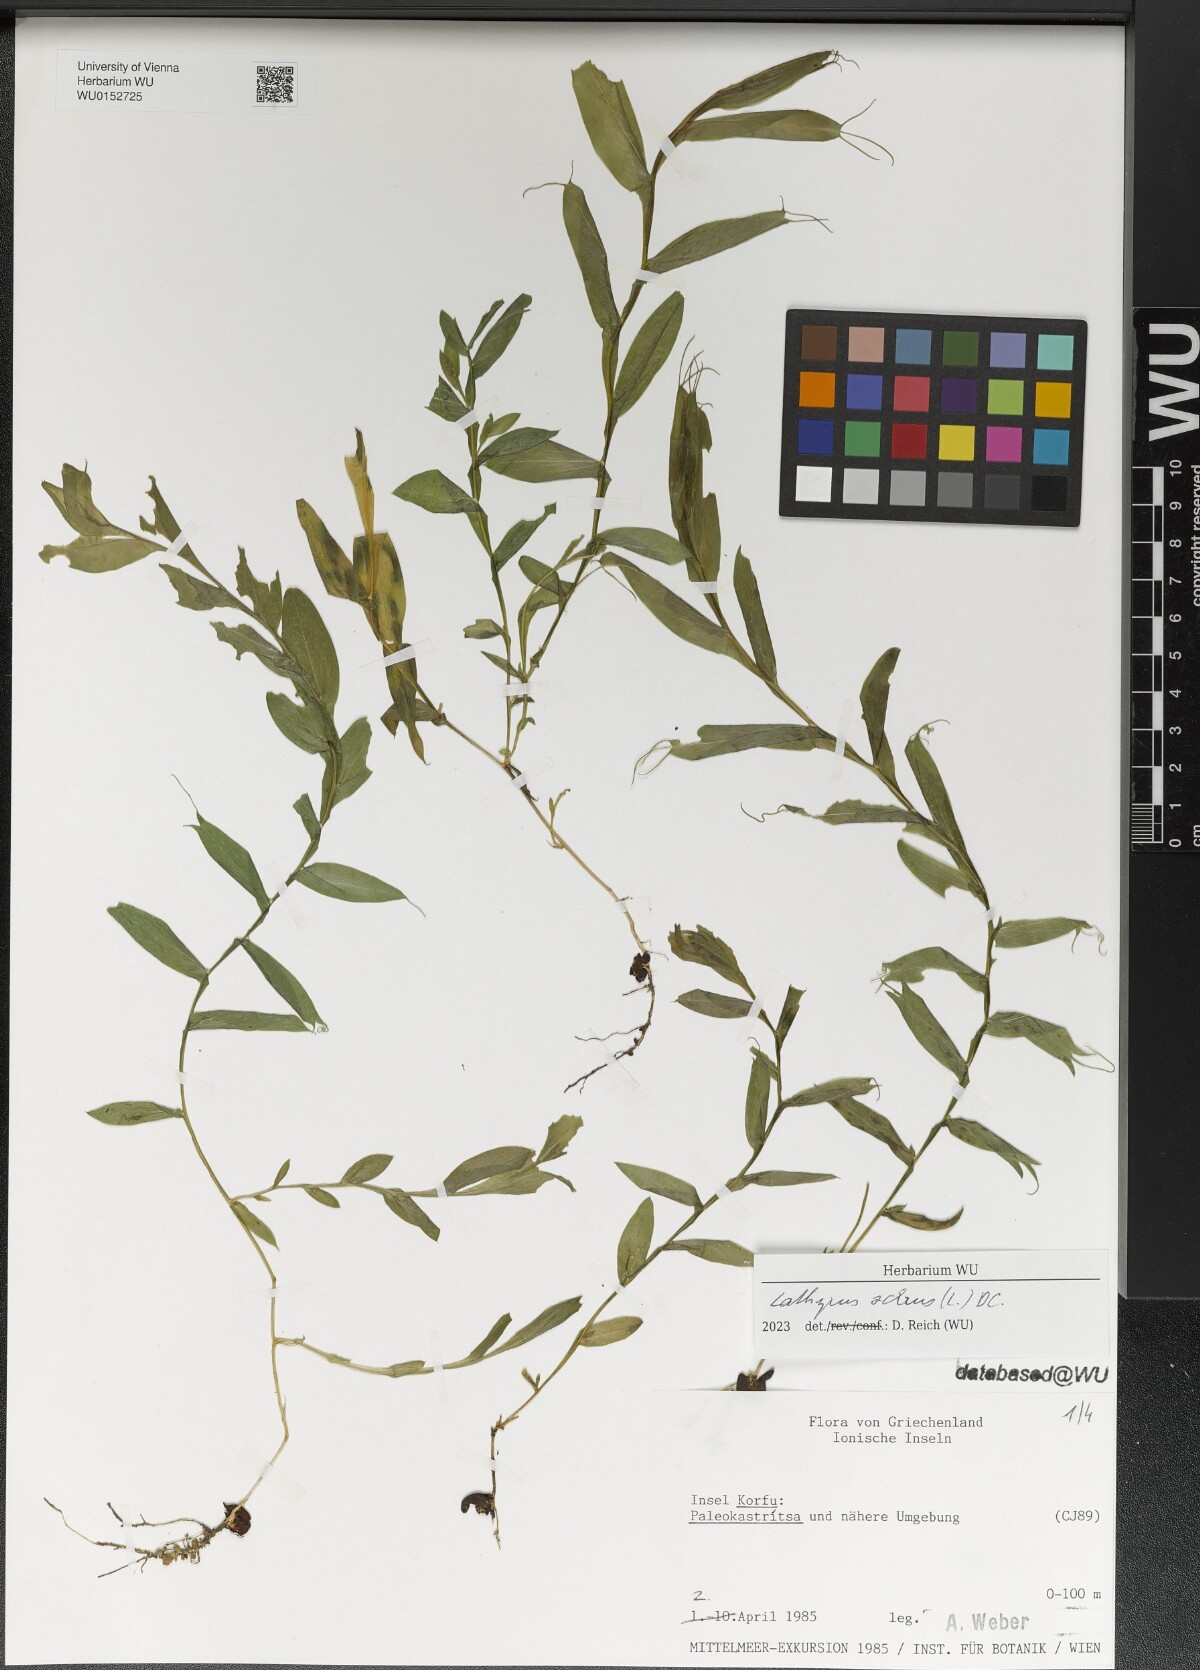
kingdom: Plantae
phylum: Tracheophyta
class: Magnoliopsida
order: Fabales
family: Fabaceae
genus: Lathyrus
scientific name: Lathyrus ochrus
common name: Winged vetchling
